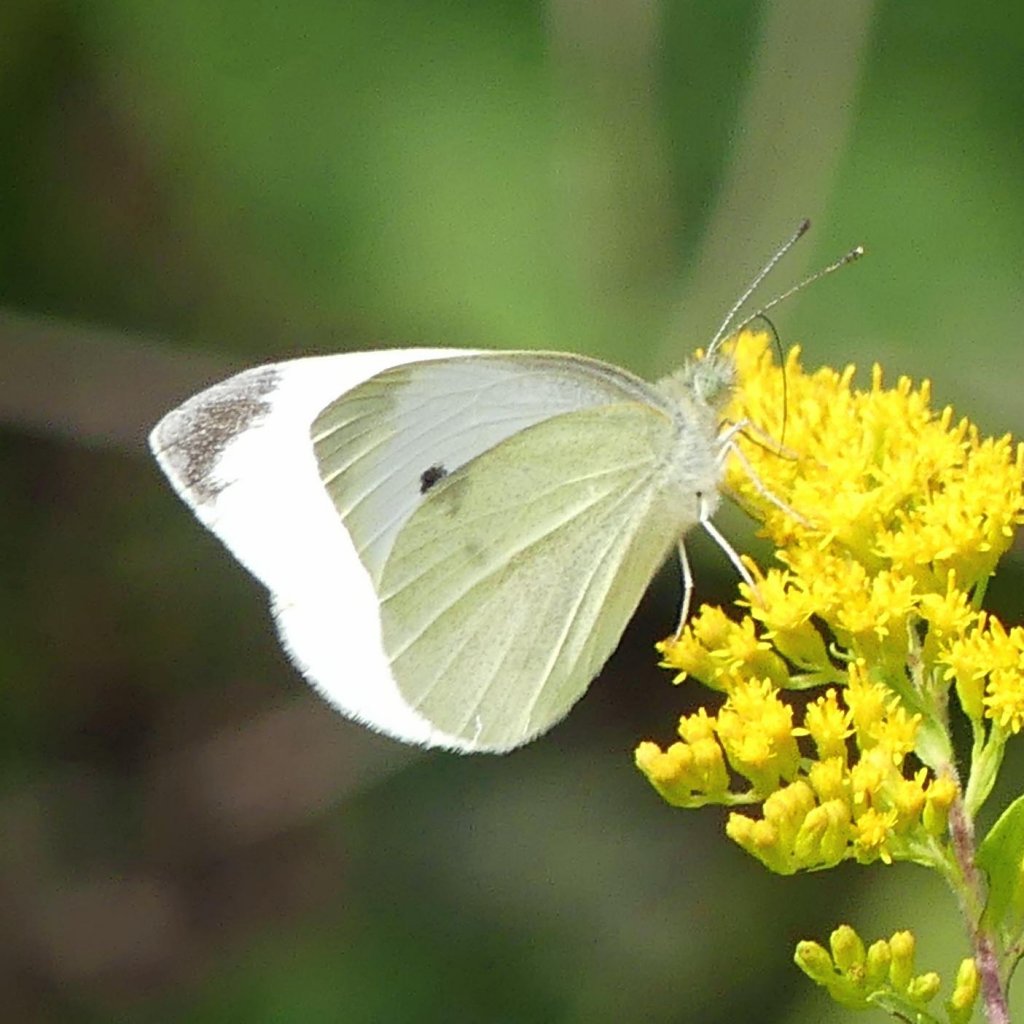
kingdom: Animalia
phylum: Arthropoda
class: Insecta
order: Lepidoptera
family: Pieridae
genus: Pieris
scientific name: Pieris rapae
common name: Cabbage White
